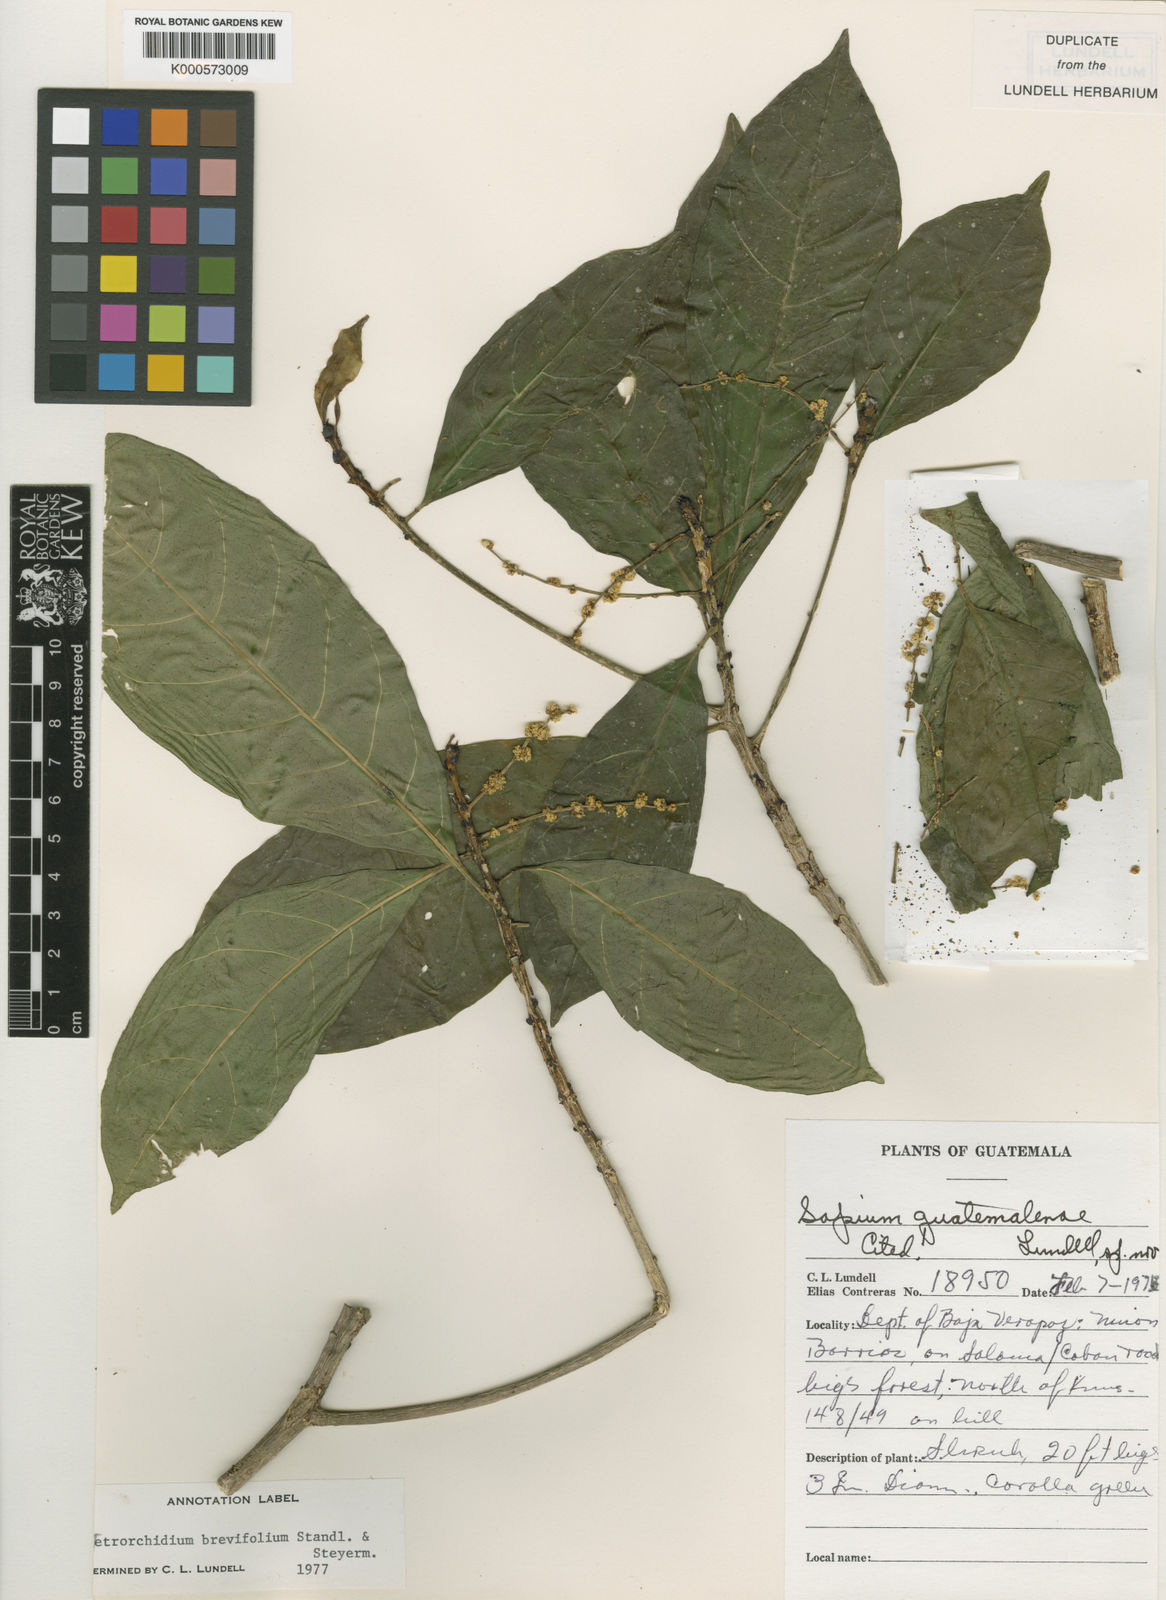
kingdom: Plantae
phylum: Tracheophyta
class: Magnoliopsida
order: Malpighiales
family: Euphorbiaceae
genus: Tetrorchidium
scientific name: Tetrorchidium brevifolium
